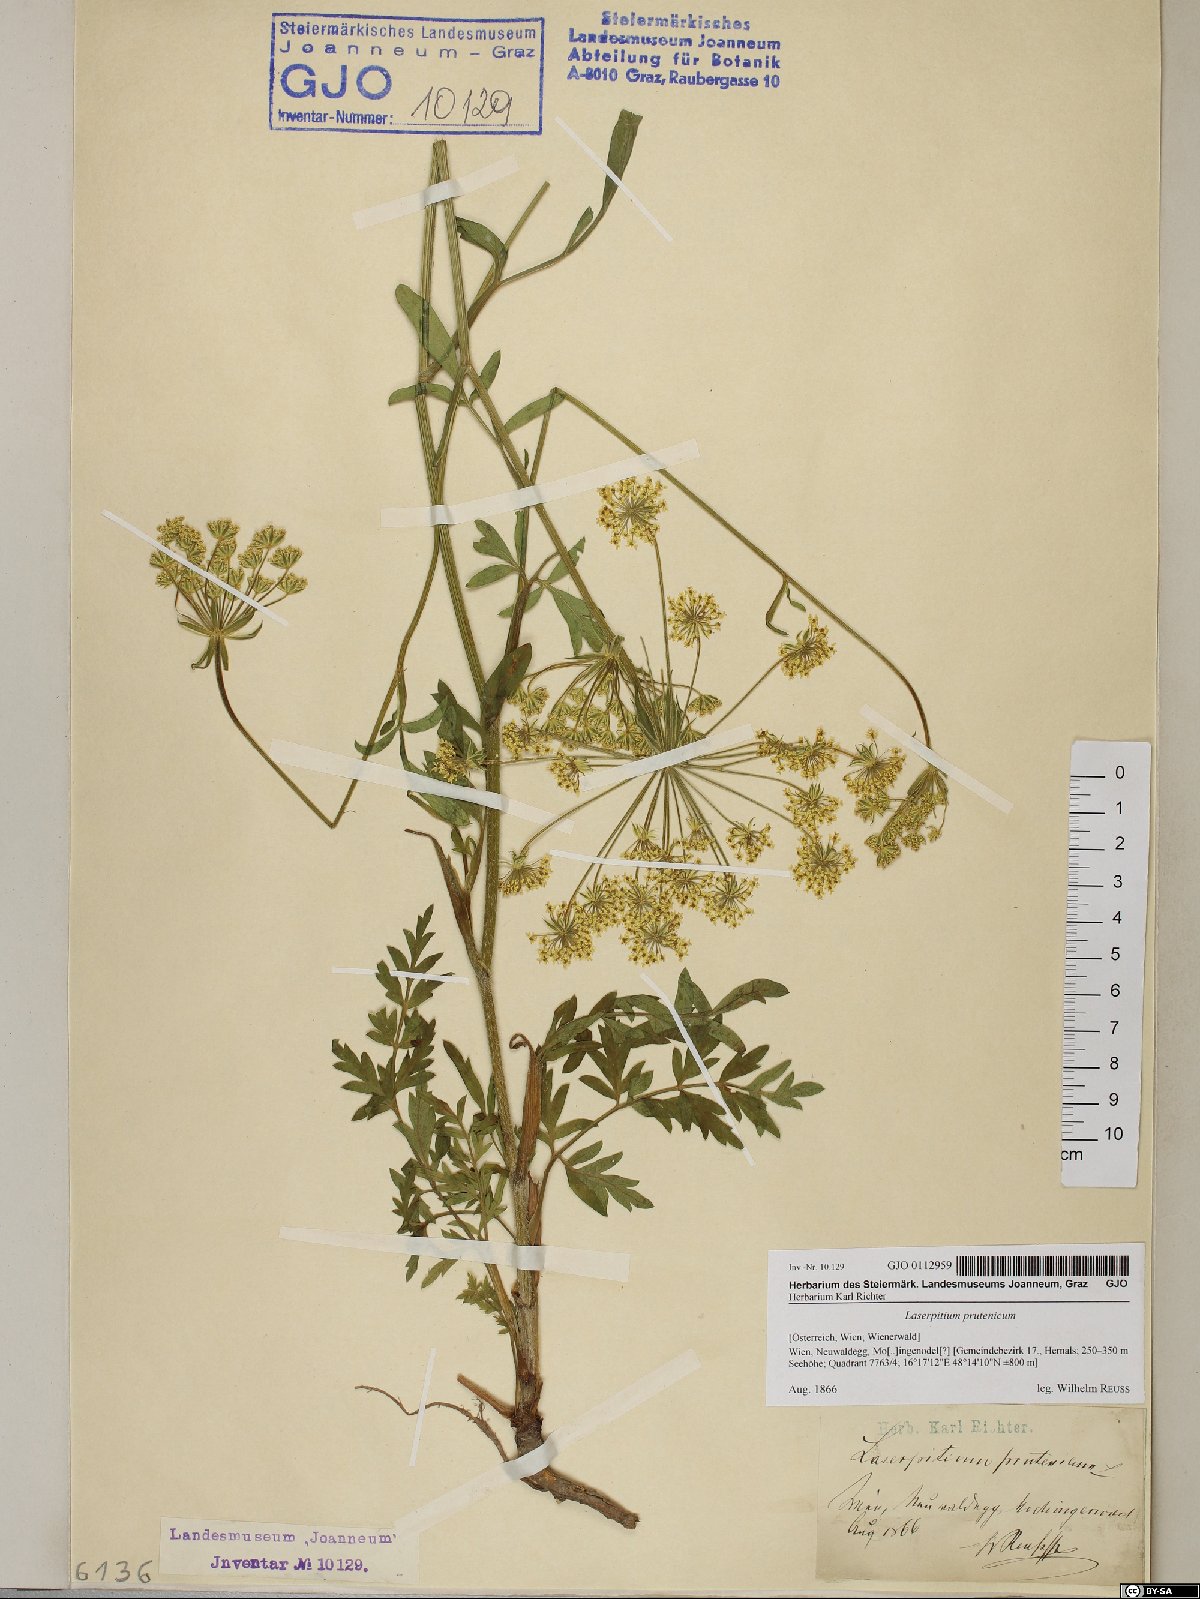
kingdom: Plantae
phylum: Tracheophyta
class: Magnoliopsida
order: Apiales
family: Apiaceae
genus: Silphiodaucus
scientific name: Silphiodaucus prutenicus
